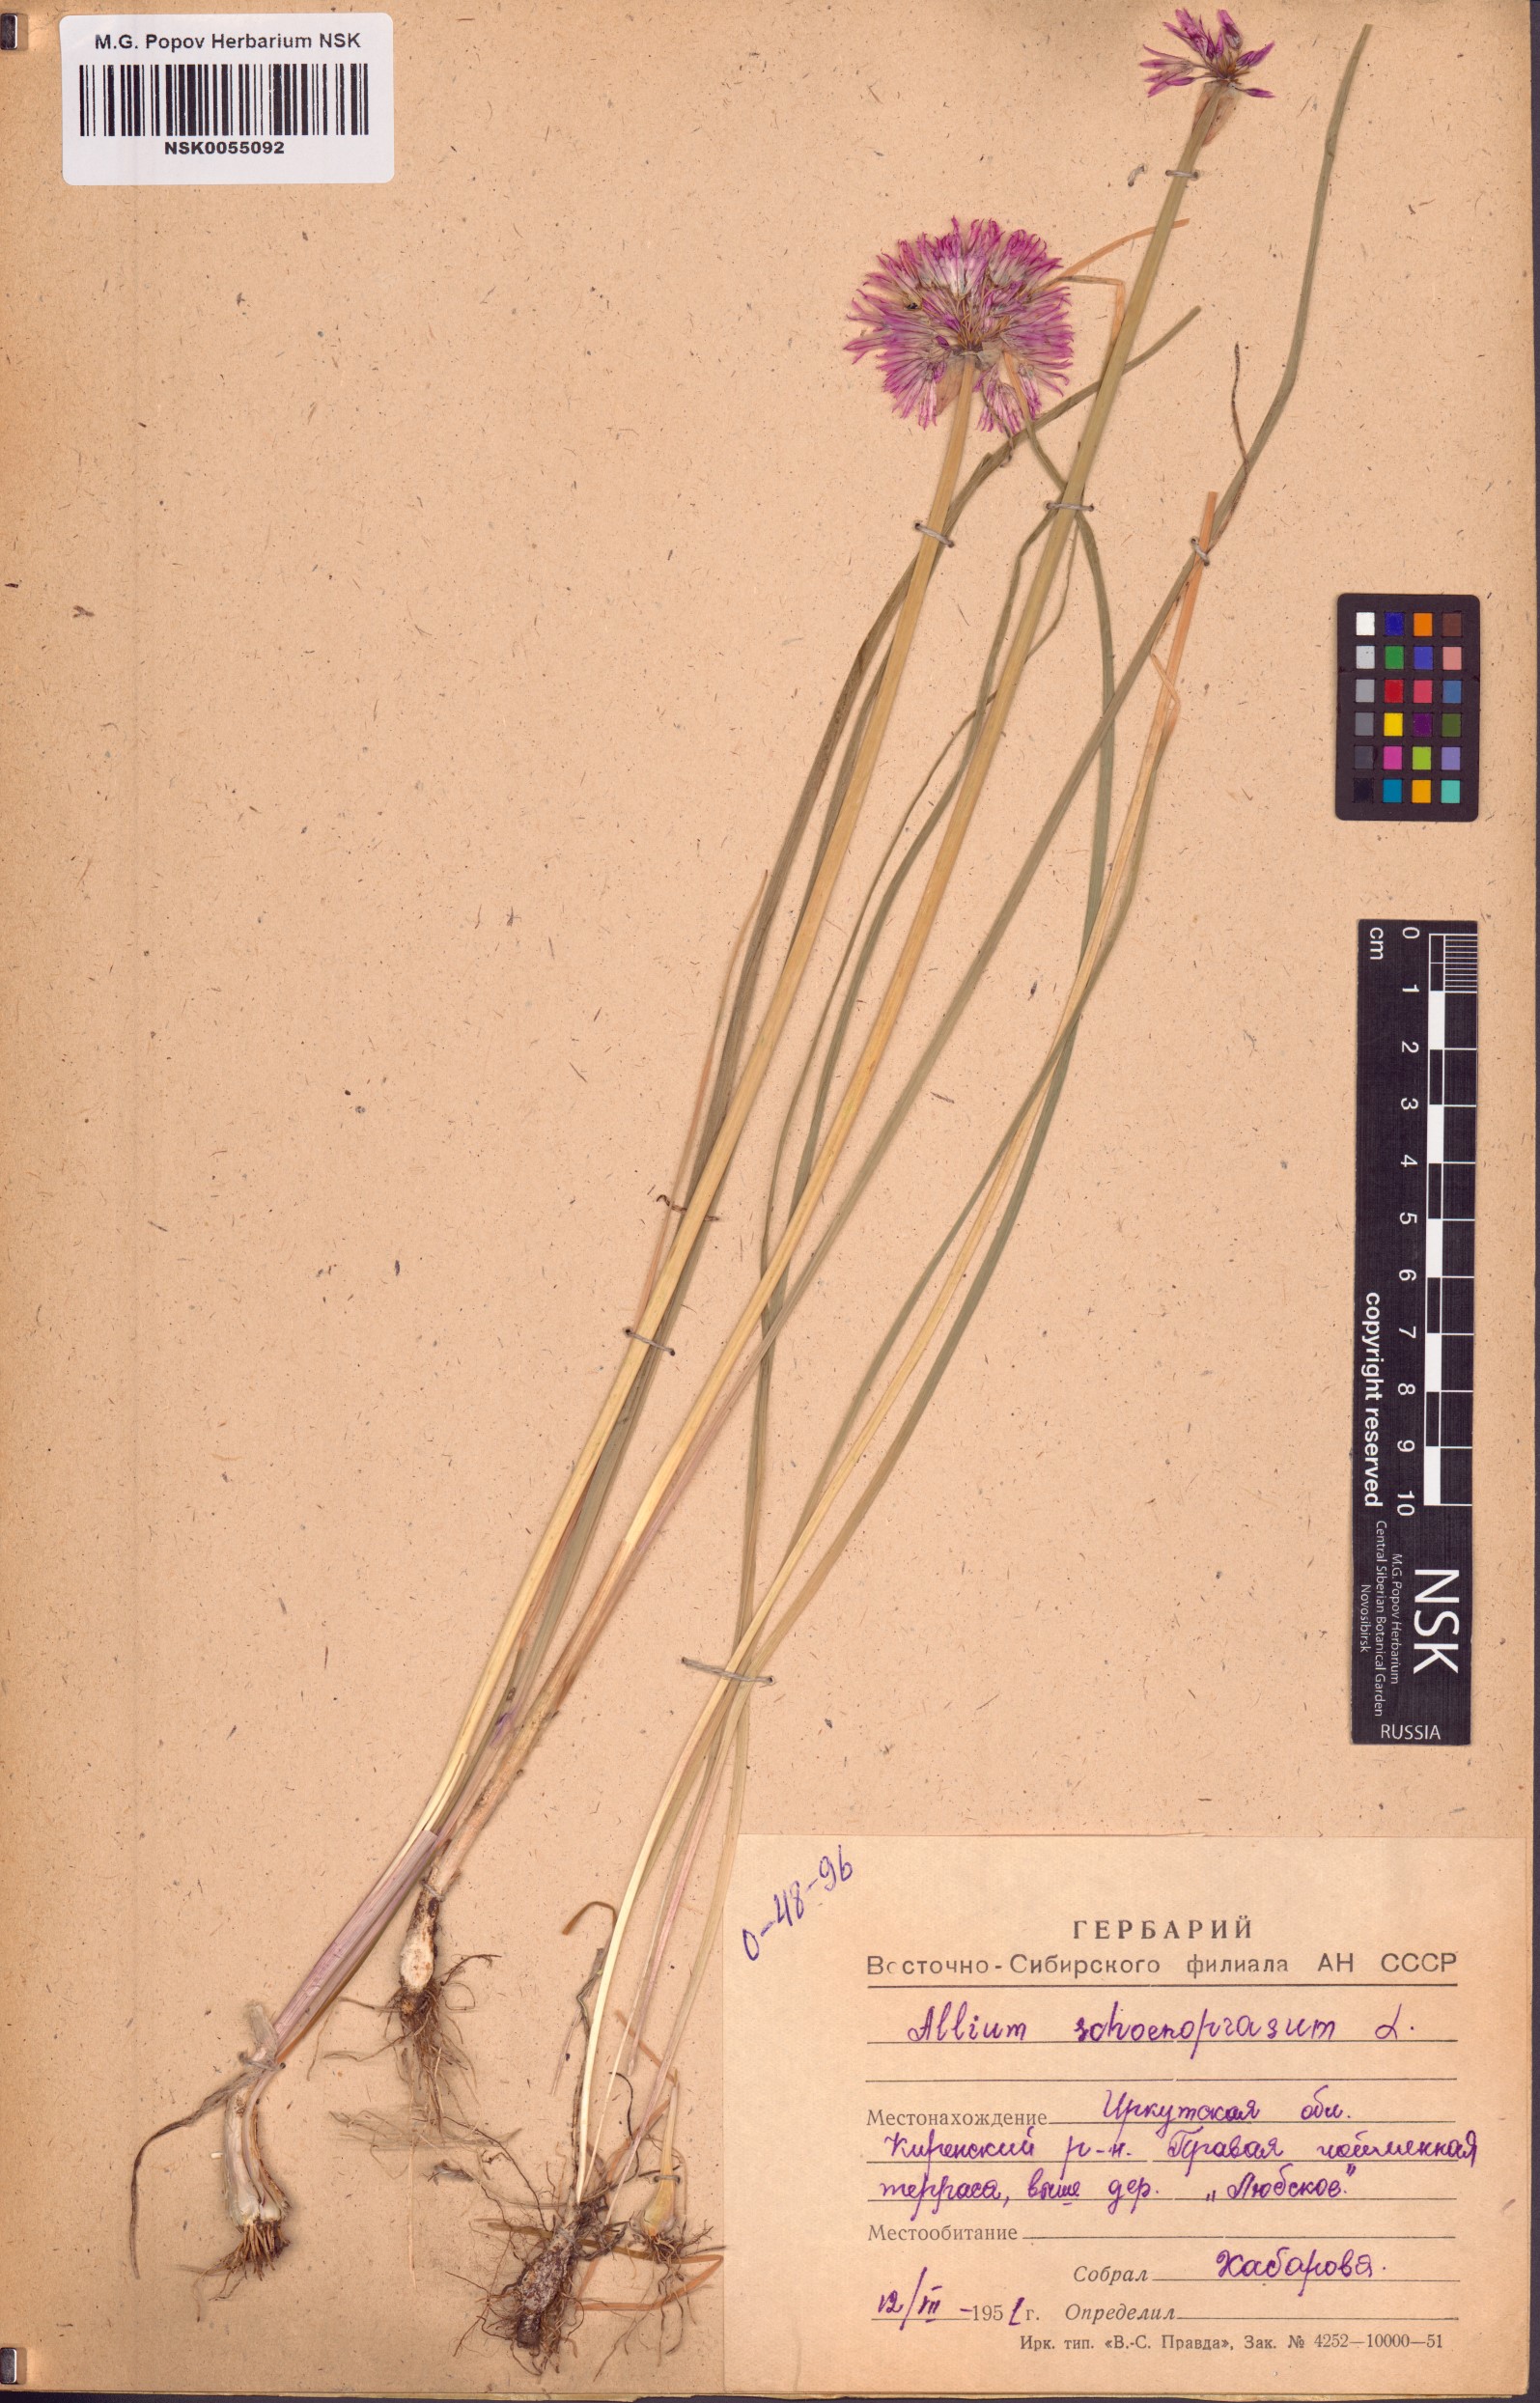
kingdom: Plantae
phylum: Tracheophyta
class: Liliopsida
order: Asparagales
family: Amaryllidaceae
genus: Allium
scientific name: Allium schoenoprasum
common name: Chives
